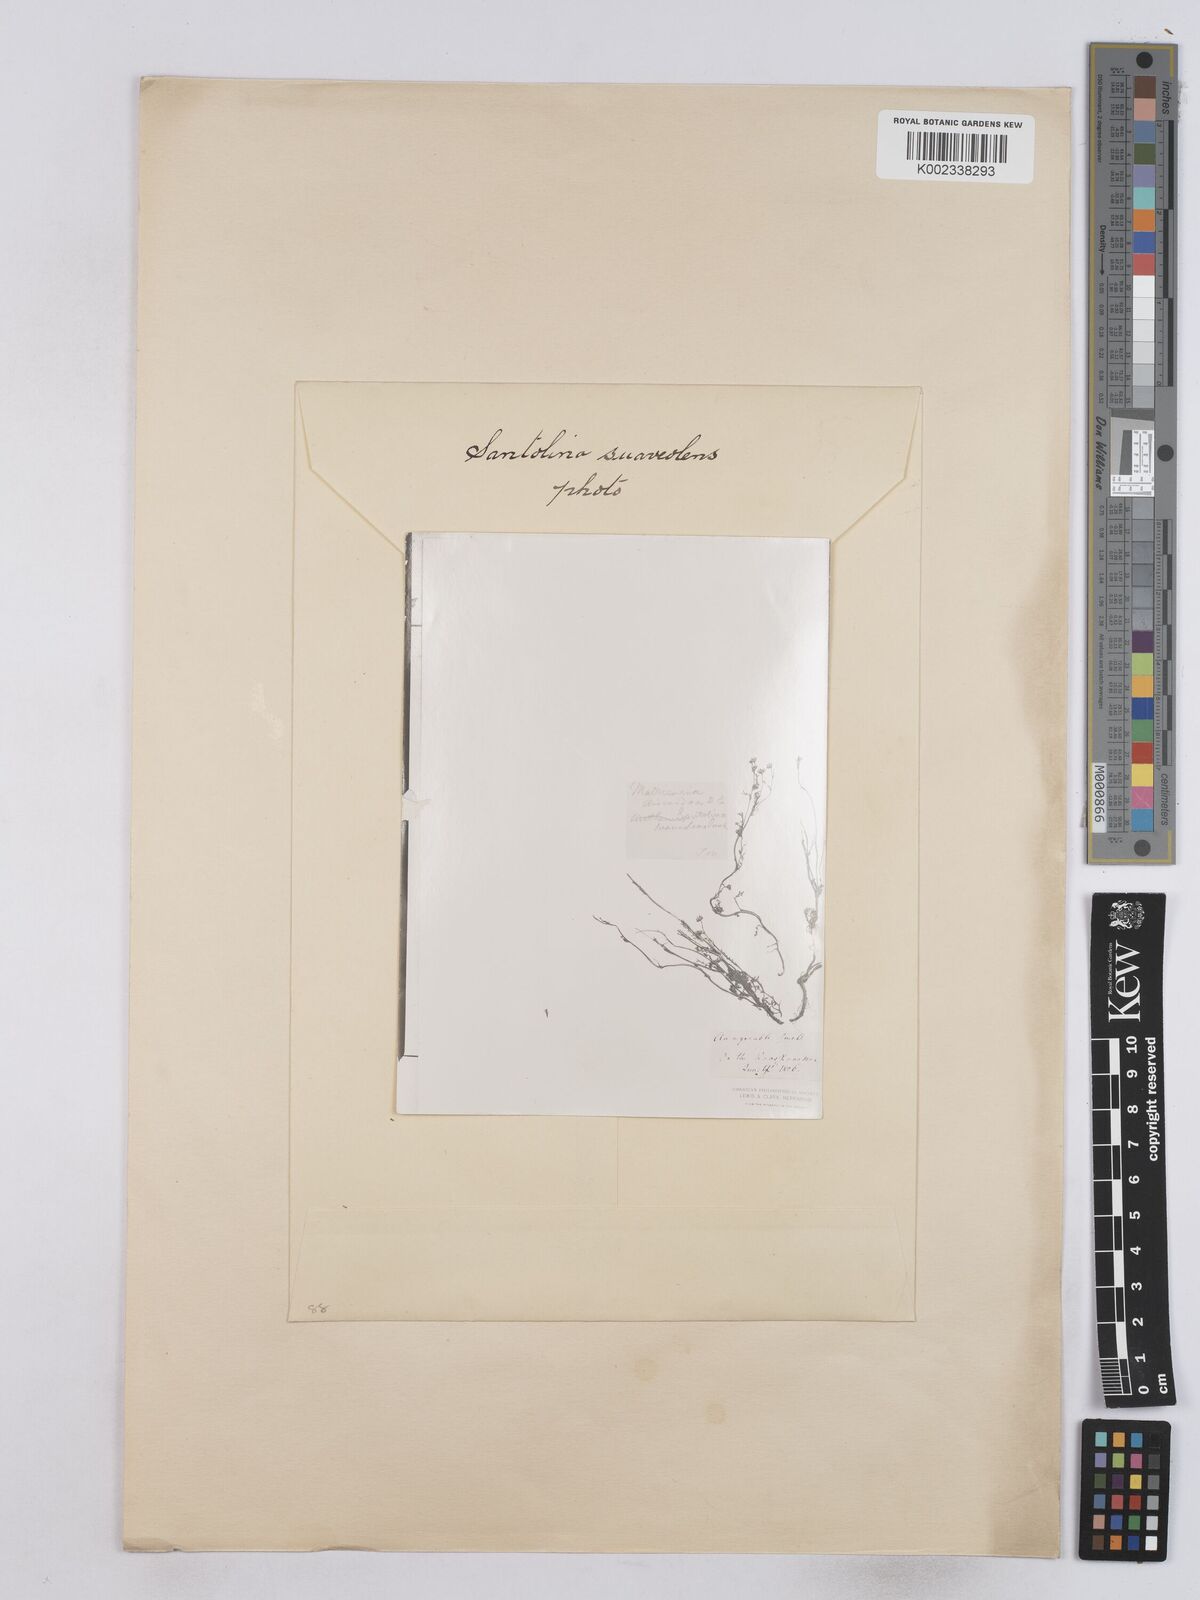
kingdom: Plantae
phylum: Tracheophyta
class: Magnoliopsida
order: Asterales
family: Asteraceae
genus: Matricaria
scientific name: Matricaria discoidea
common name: Disc mayweed
